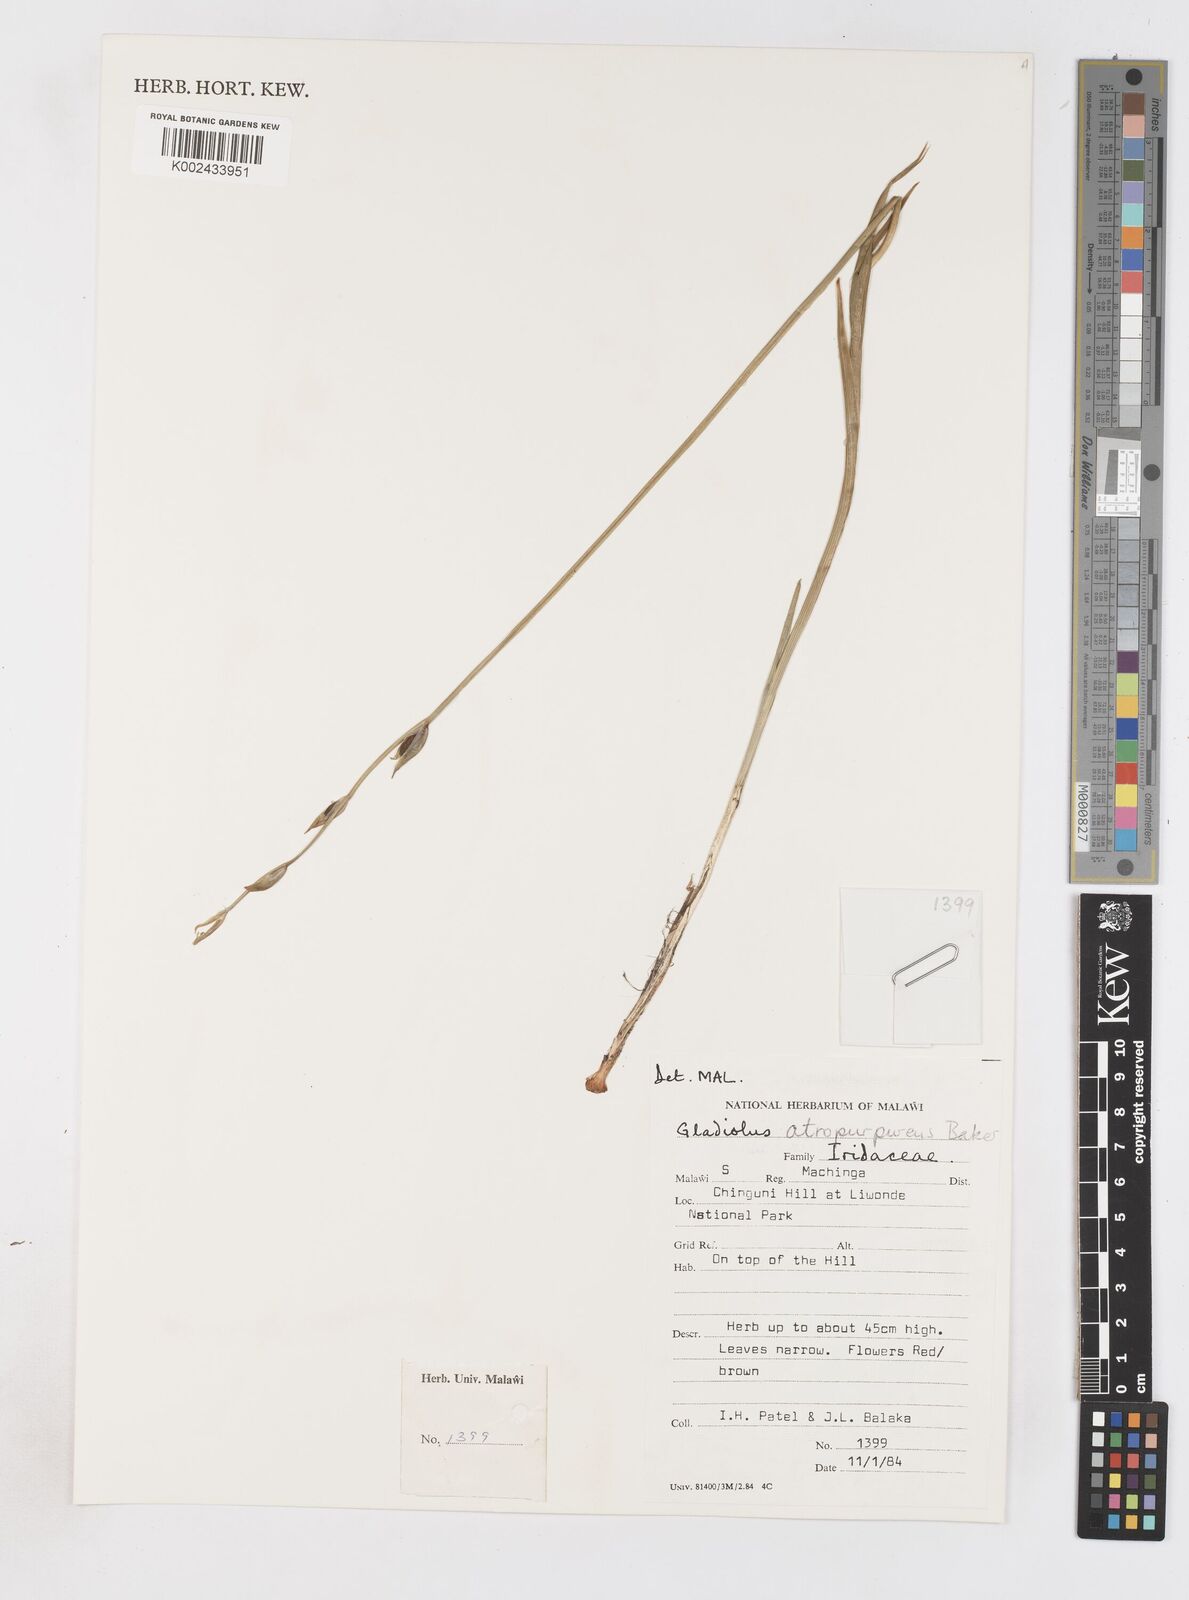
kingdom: Plantae
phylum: Tracheophyta
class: Liliopsida
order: Asparagales
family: Iridaceae
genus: Gladiolus
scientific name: Gladiolus atropurpureus
